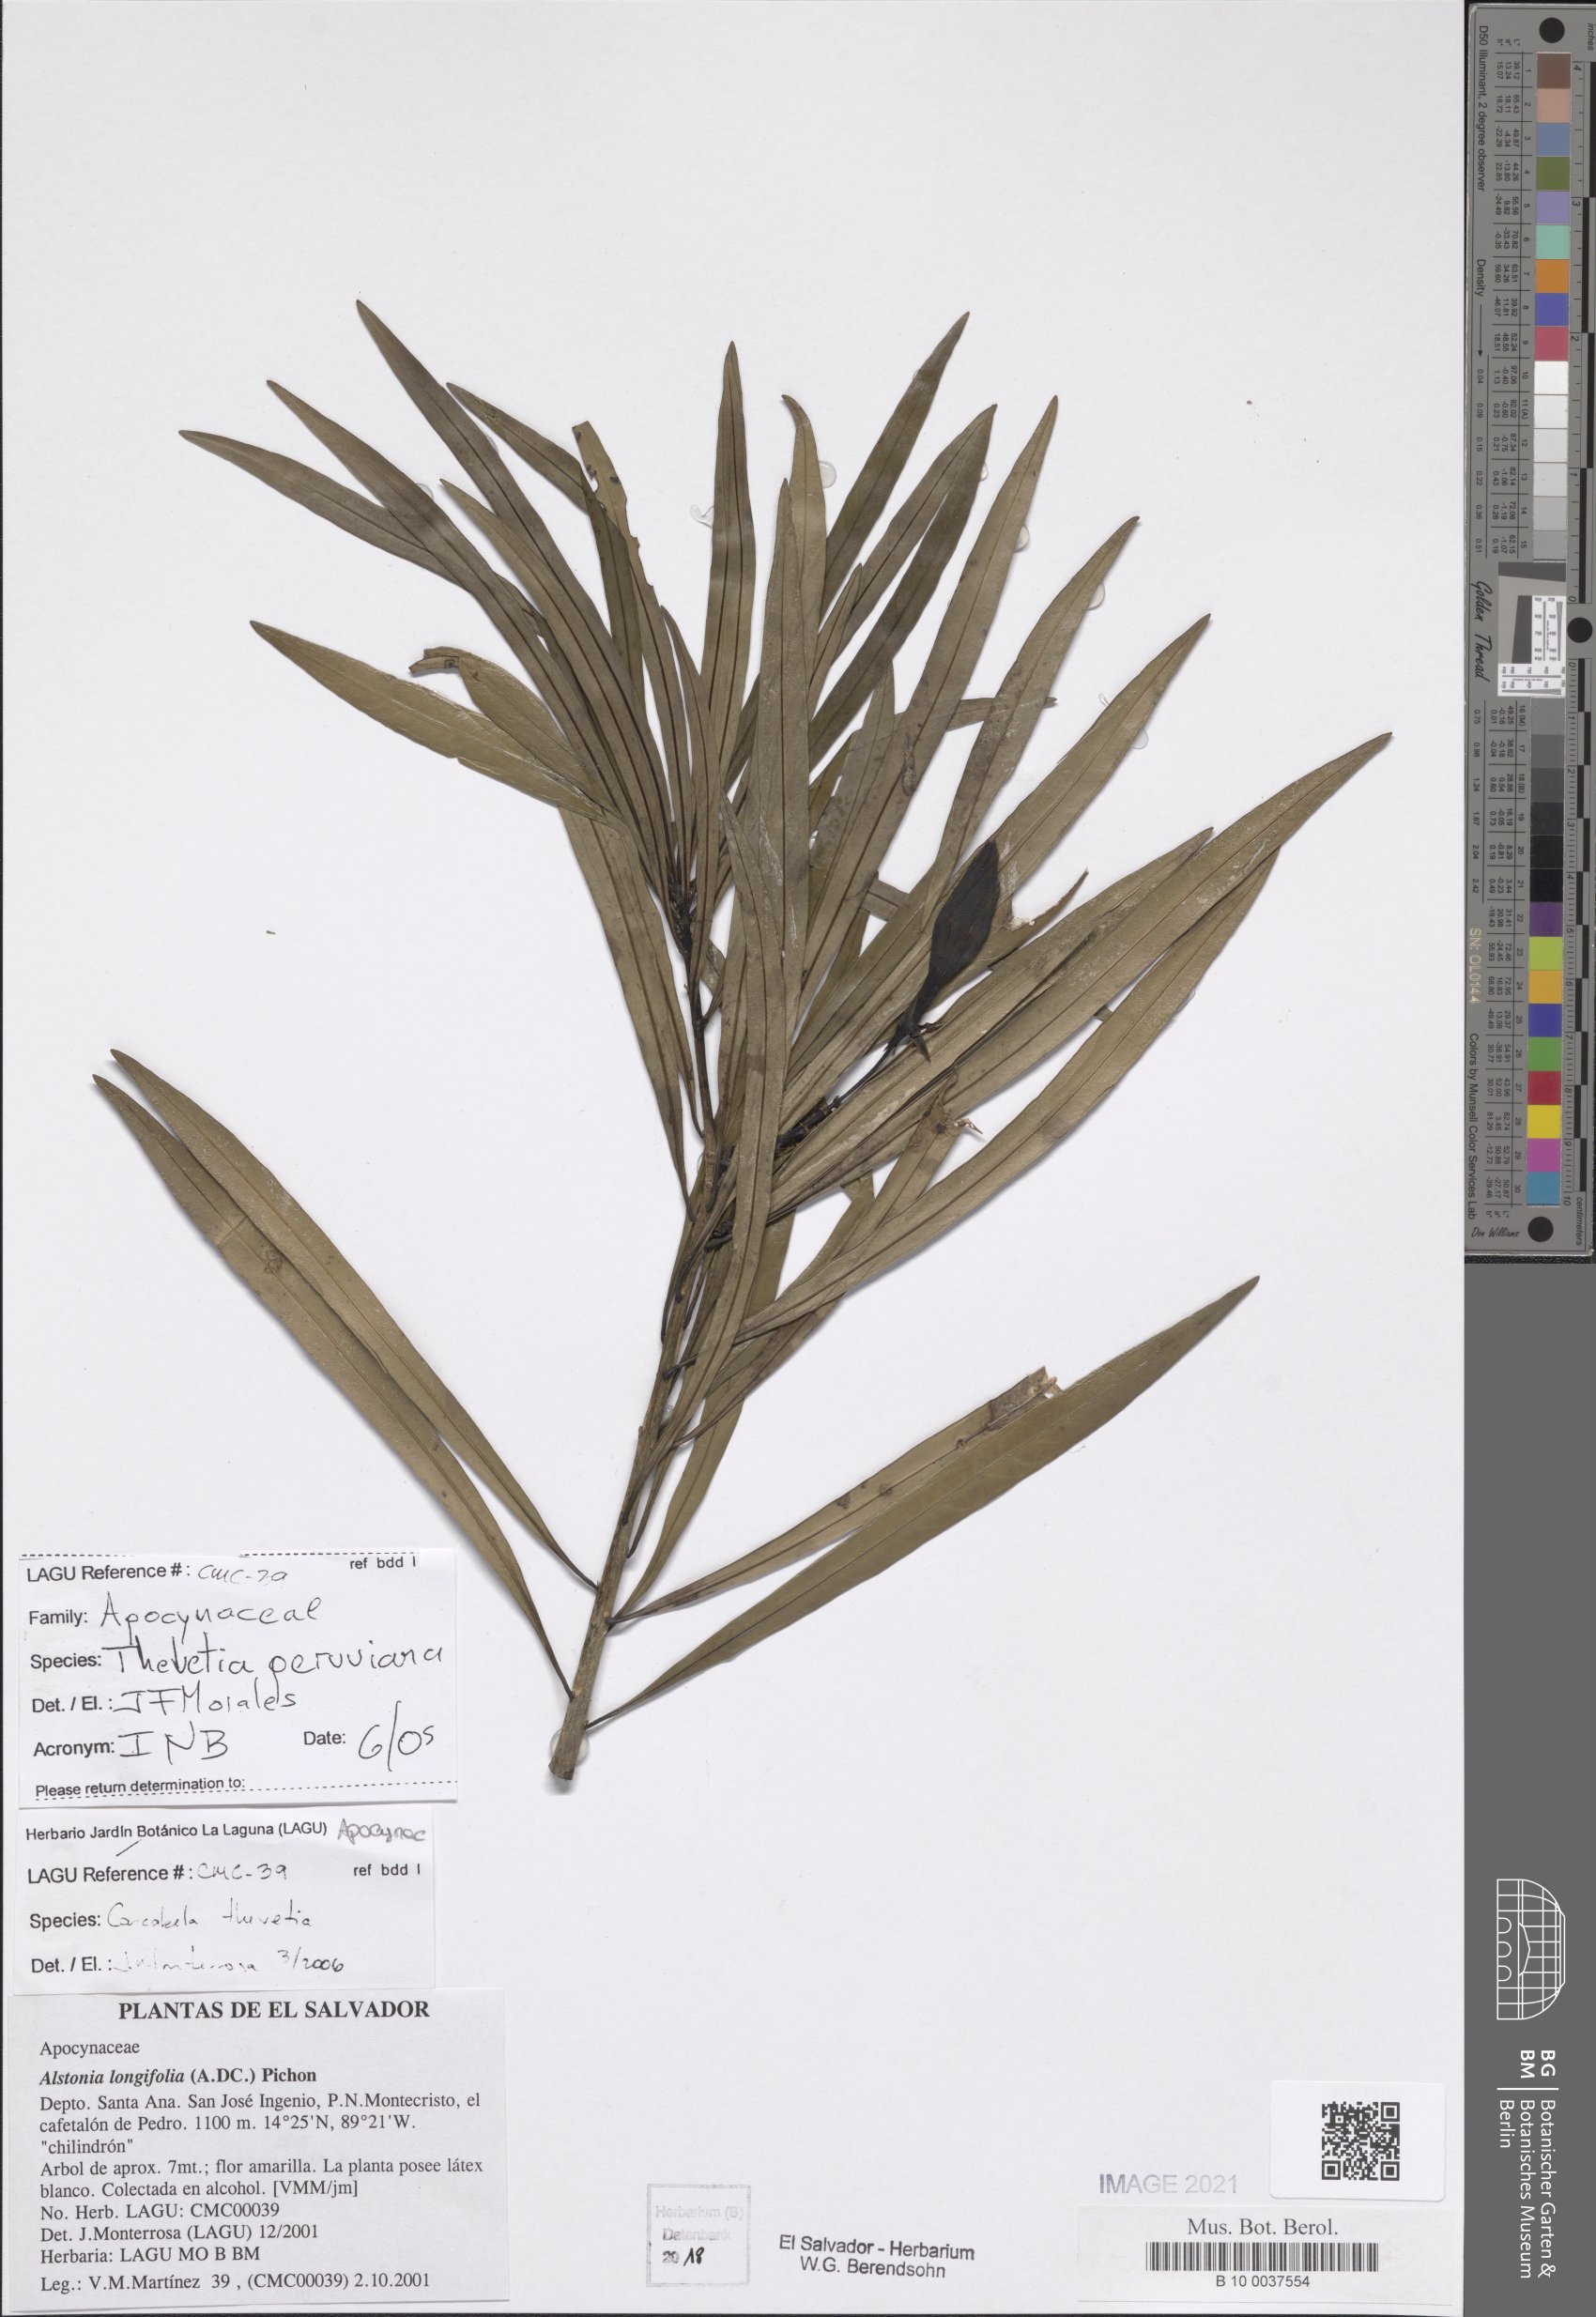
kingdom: Plantae
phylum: Tracheophyta
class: Magnoliopsida
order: Gentianales
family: Apocynaceae
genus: Cascabela
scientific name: Cascabela thevetia
